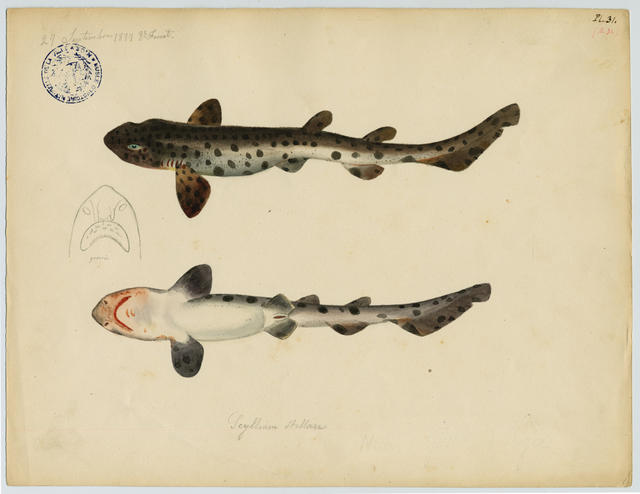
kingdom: Animalia
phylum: Chordata
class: Elasmobranchii
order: Carcharhiniformes
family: Scyliorhinidae
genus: Scyliorhinus
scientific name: Scyliorhinus stellaris
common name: Nursehound
